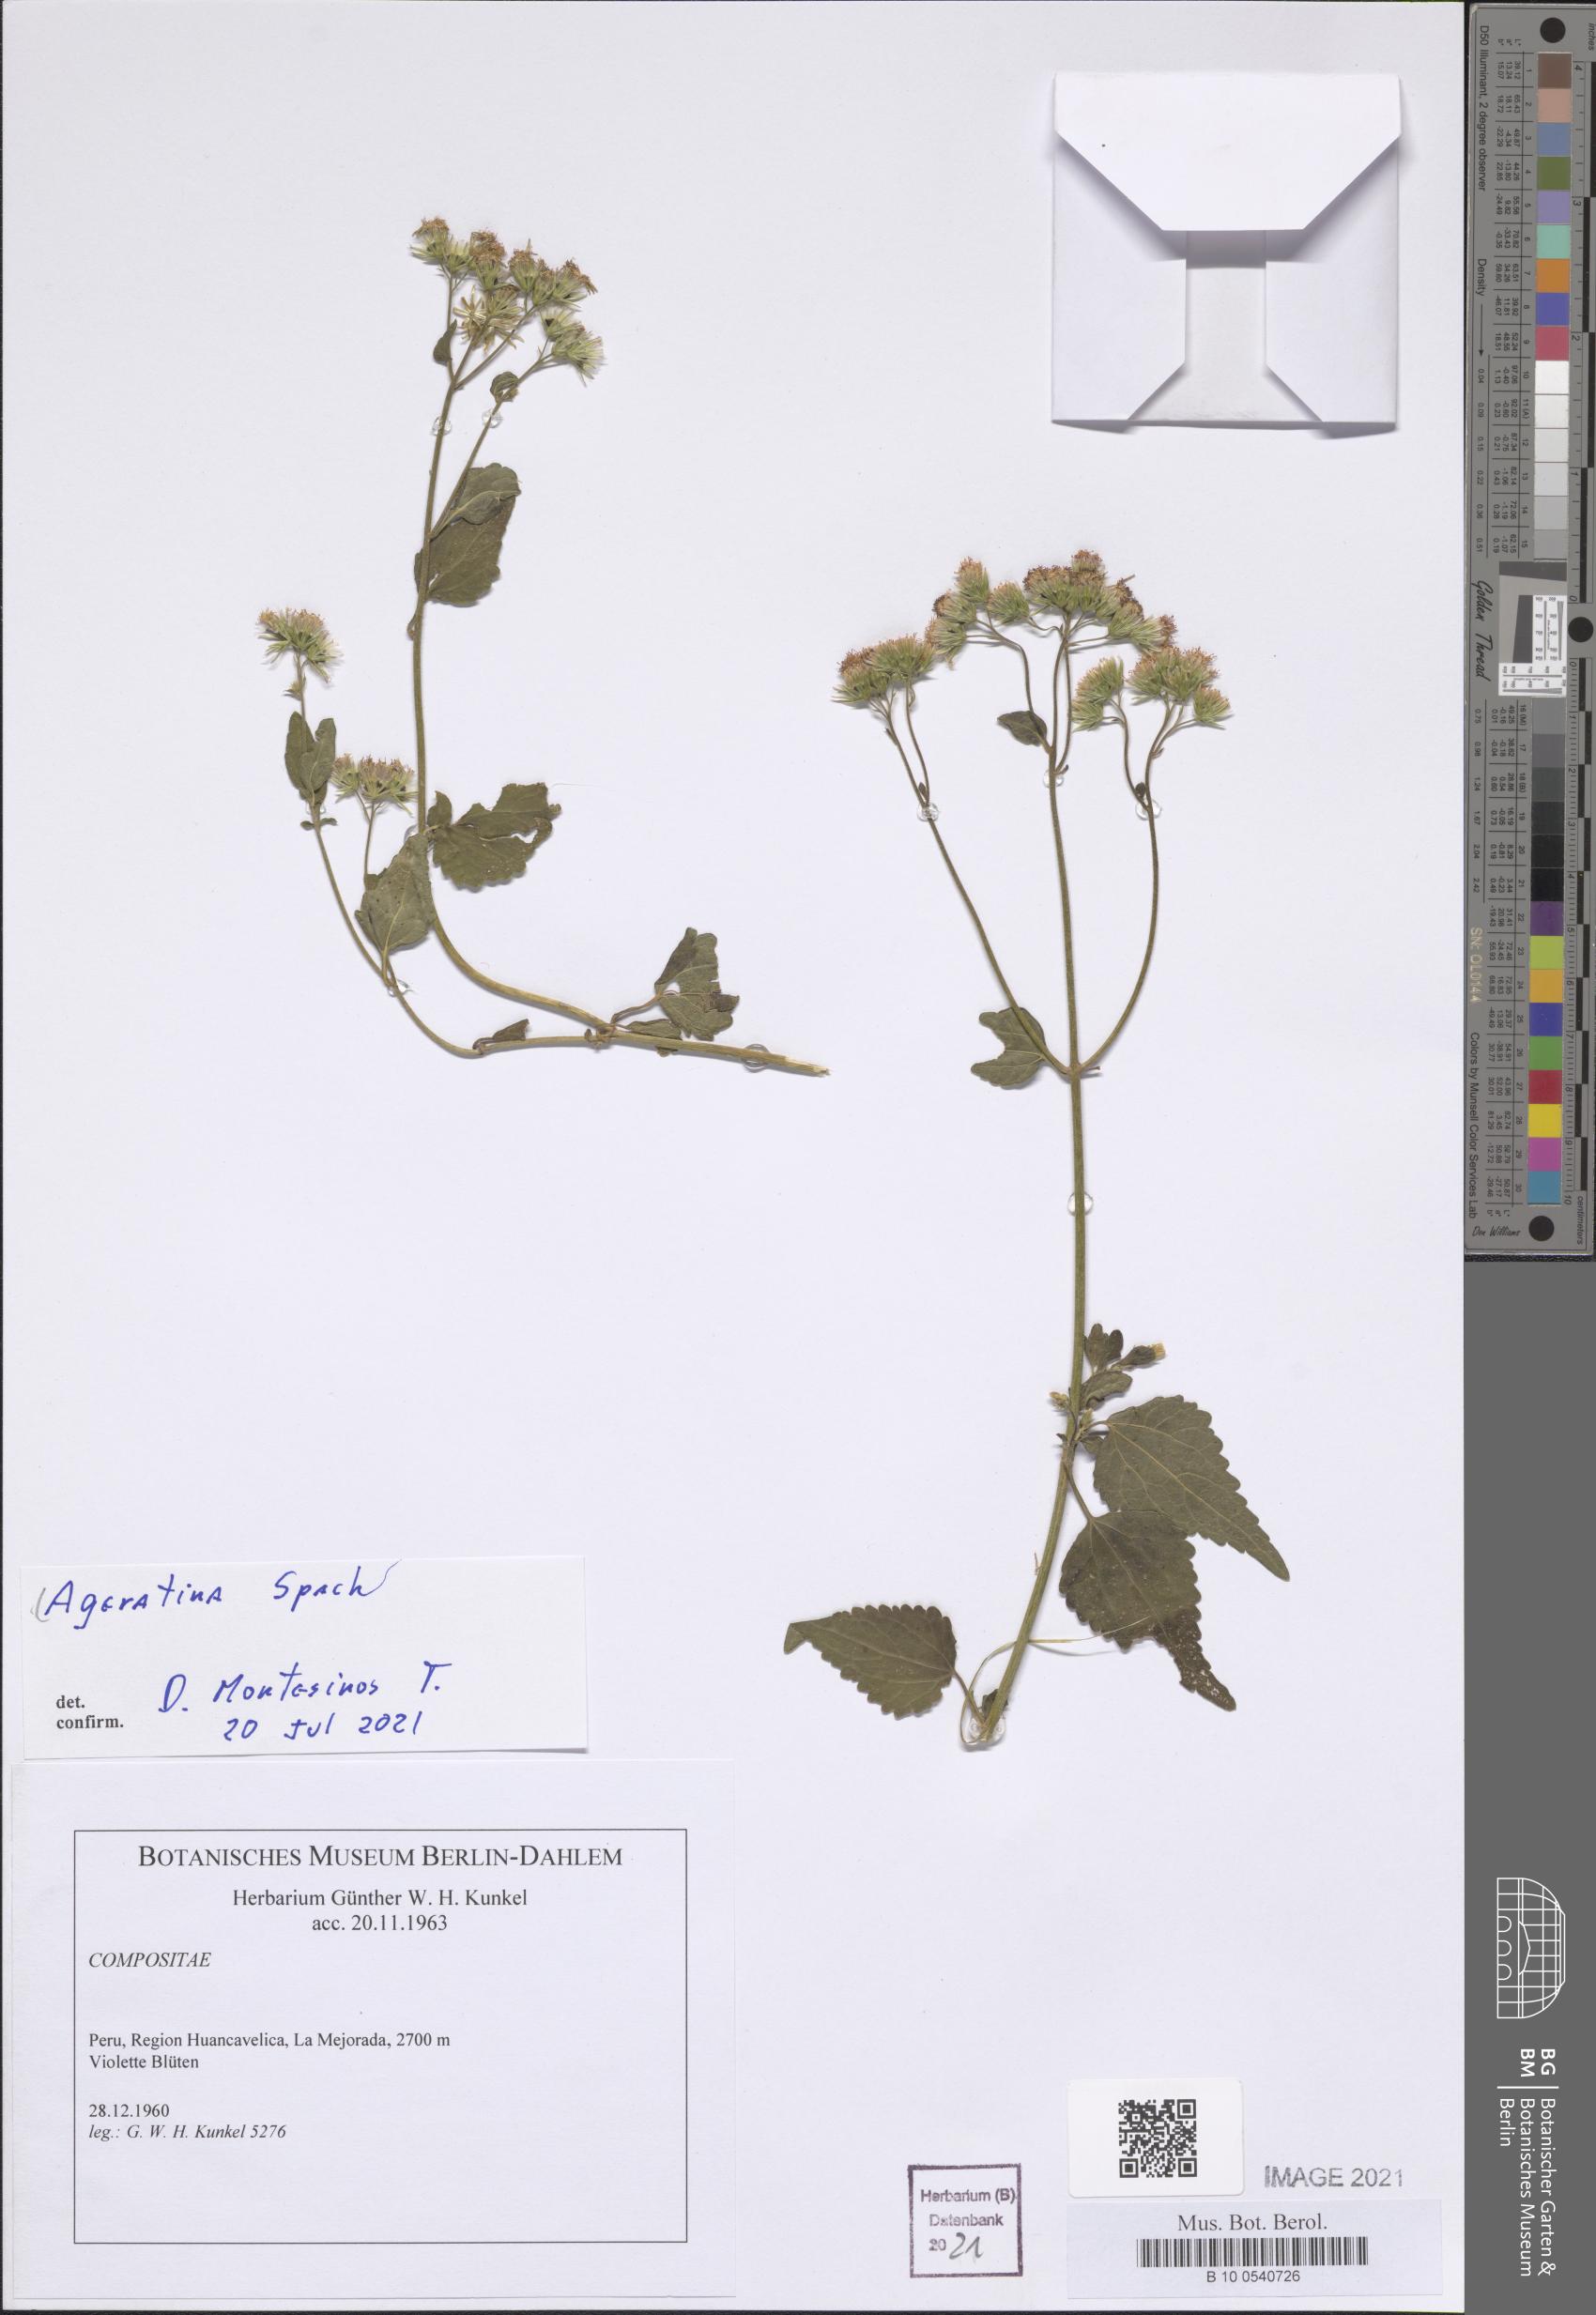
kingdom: Plantae
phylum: Tracheophyta
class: Magnoliopsida
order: Asterales
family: Asteraceae
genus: Ageratina
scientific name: Ageratina
